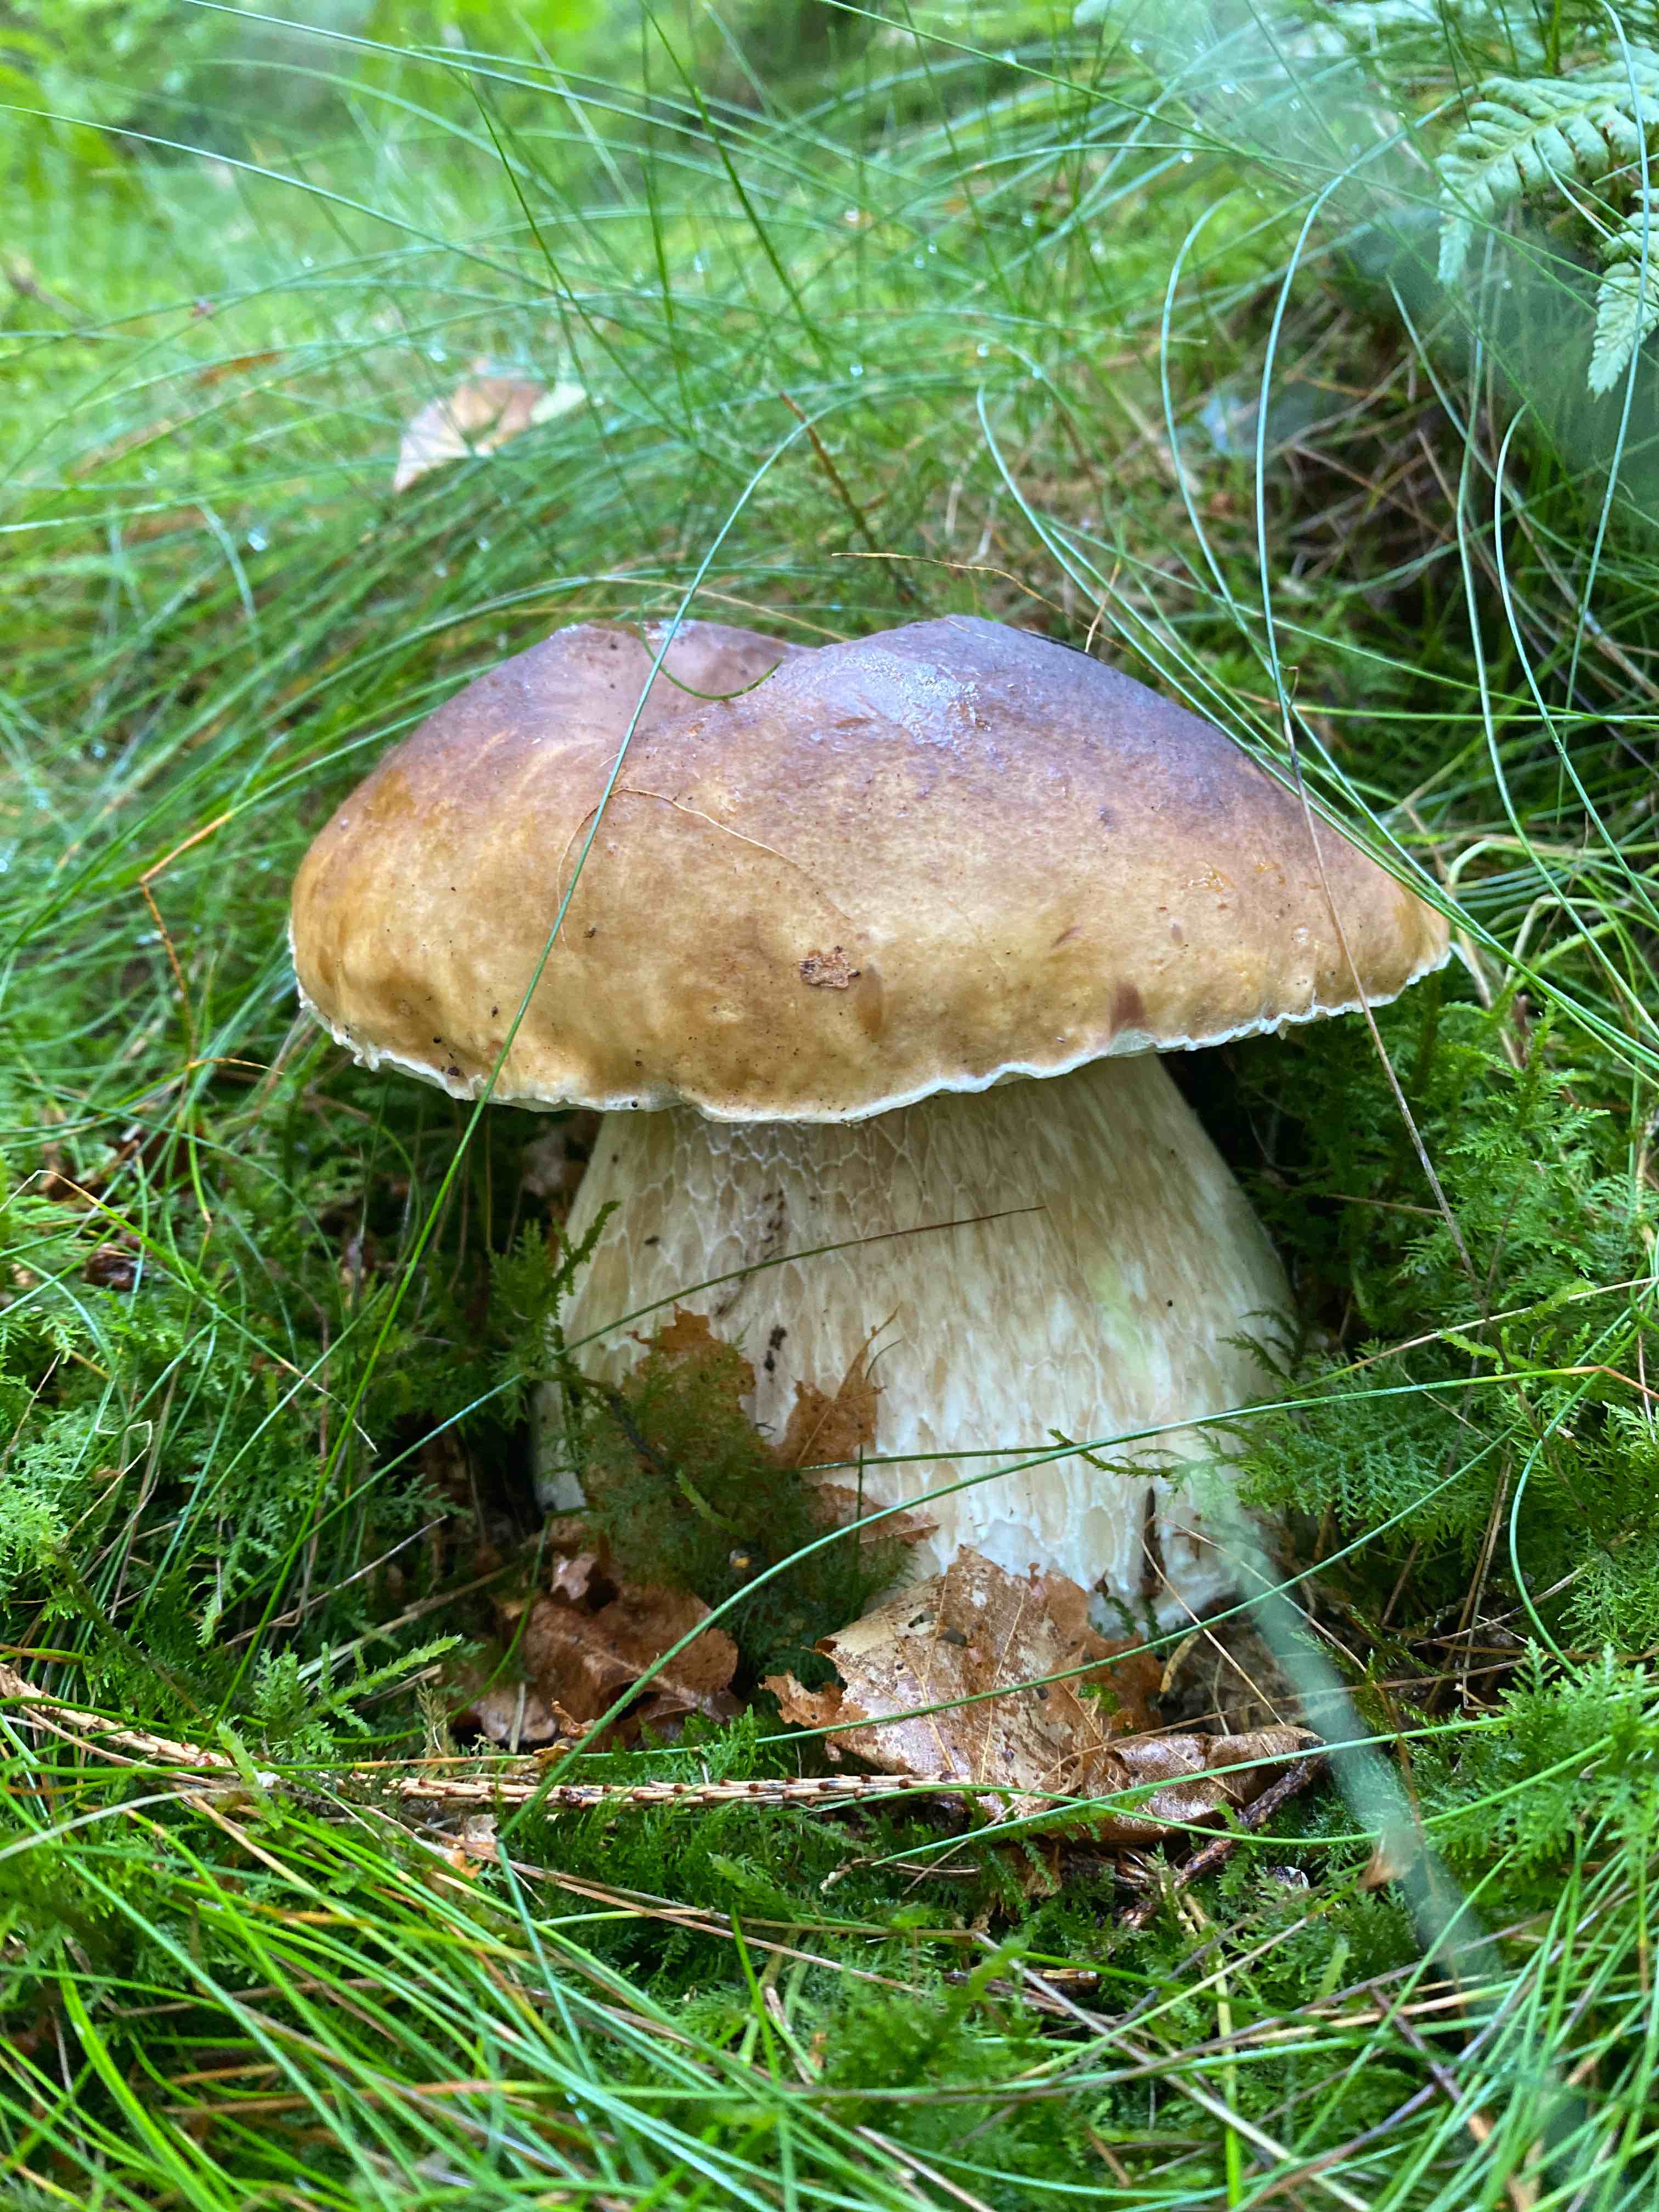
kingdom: Fungi
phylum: Basidiomycota
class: Agaricomycetes
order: Boletales
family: Boletaceae
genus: Boletus
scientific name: Boletus edulis
